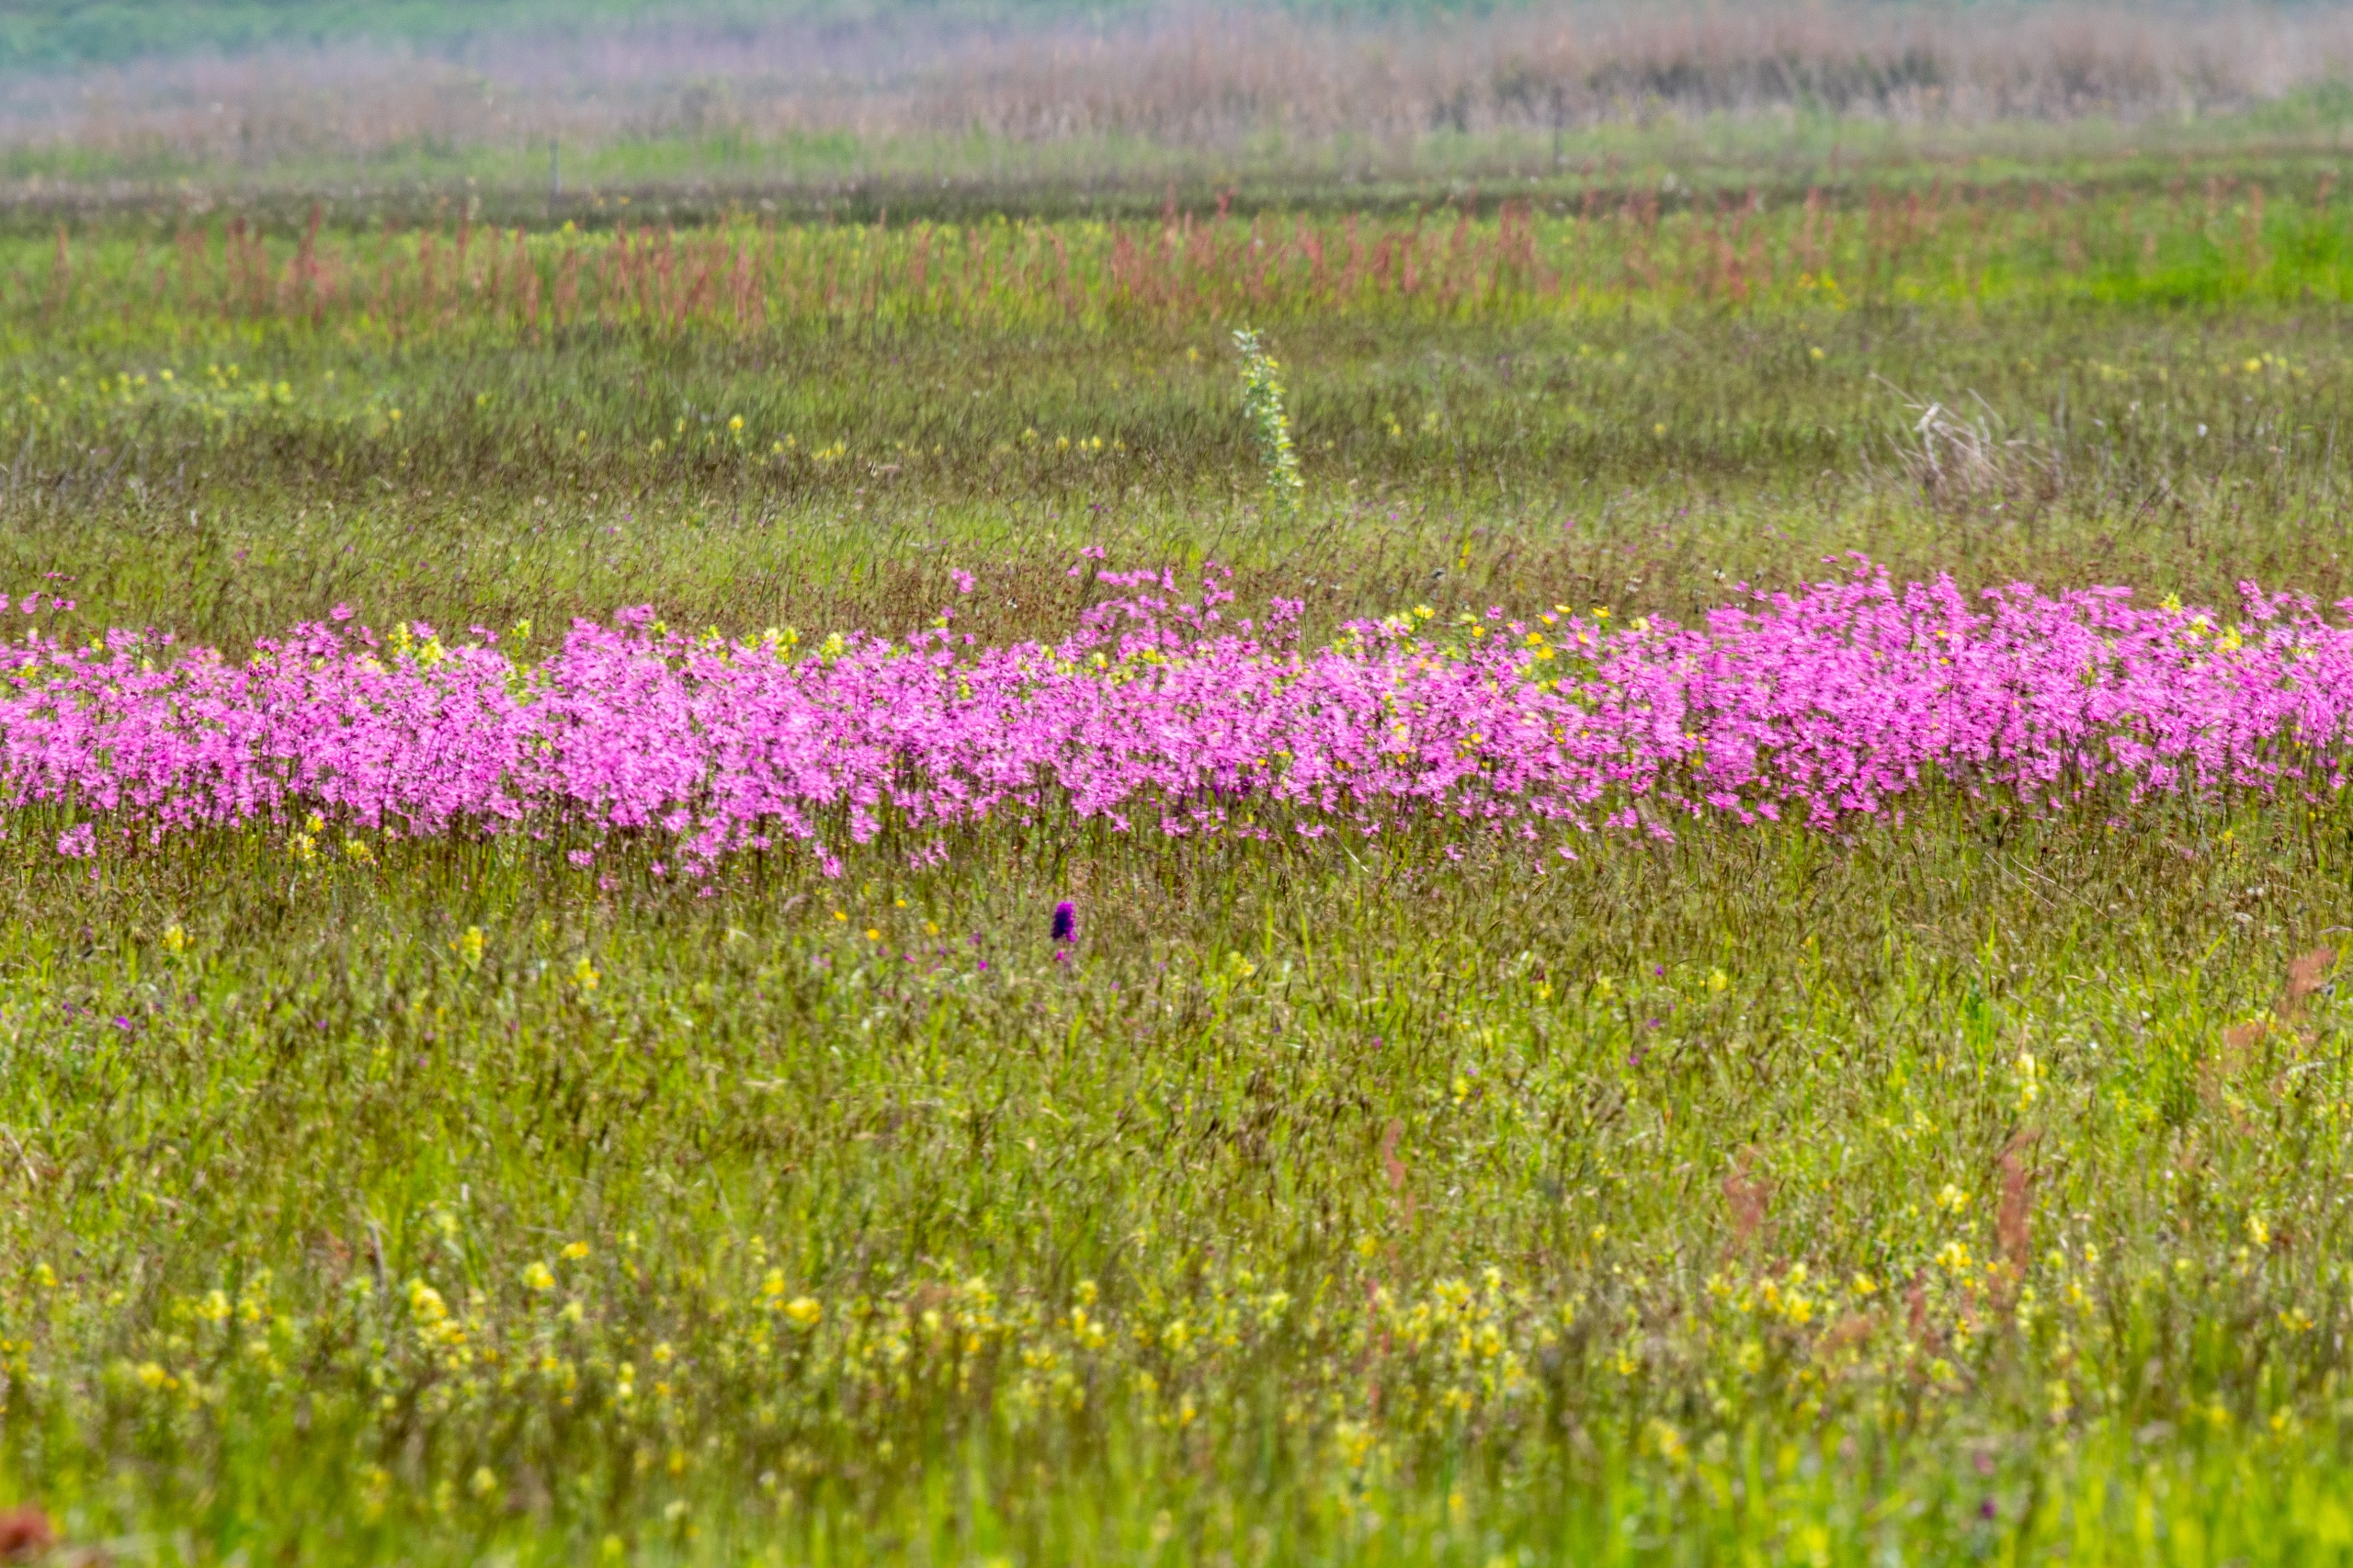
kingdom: Plantae
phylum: Tracheophyta
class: Magnoliopsida
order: Caryophyllales
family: Caryophyllaceae
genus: Silene
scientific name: Silene flos-cuculi
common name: Trævlekrone
